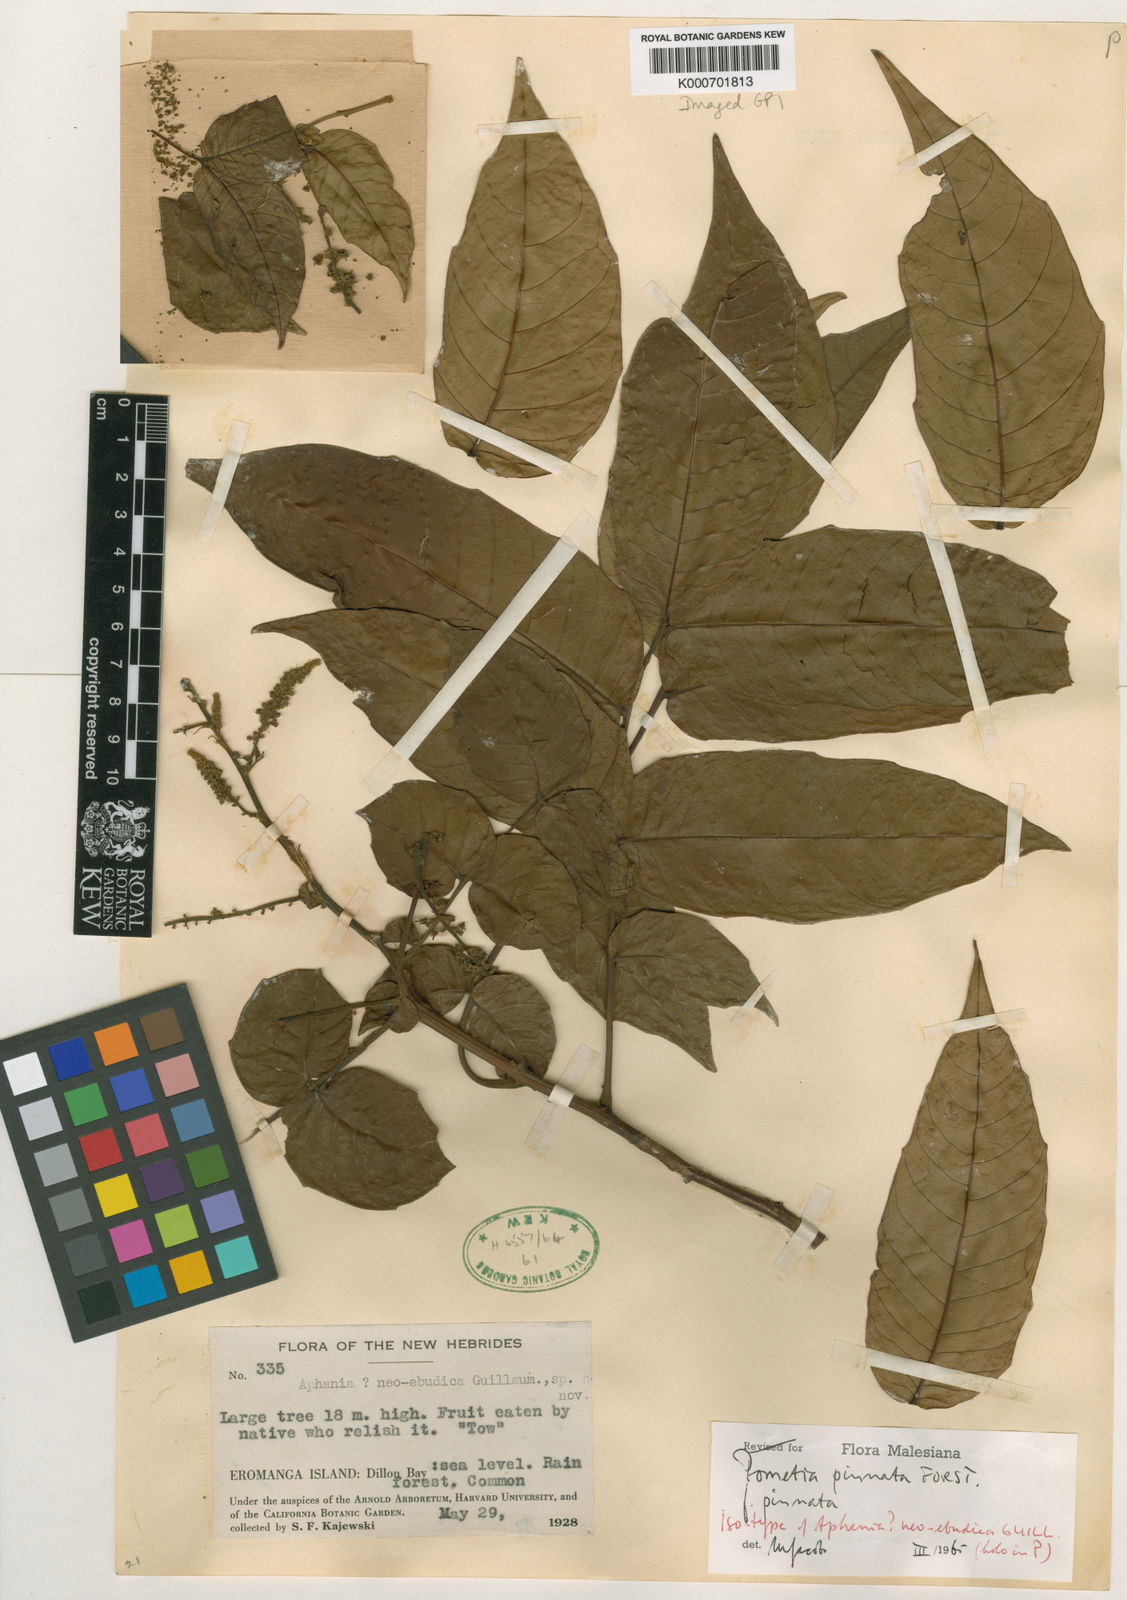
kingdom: Plantae
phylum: Tracheophyta
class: Magnoliopsida
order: Sapindales
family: Sapindaceae
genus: Pometia
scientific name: Pometia pinnata
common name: Oceanic lychee
